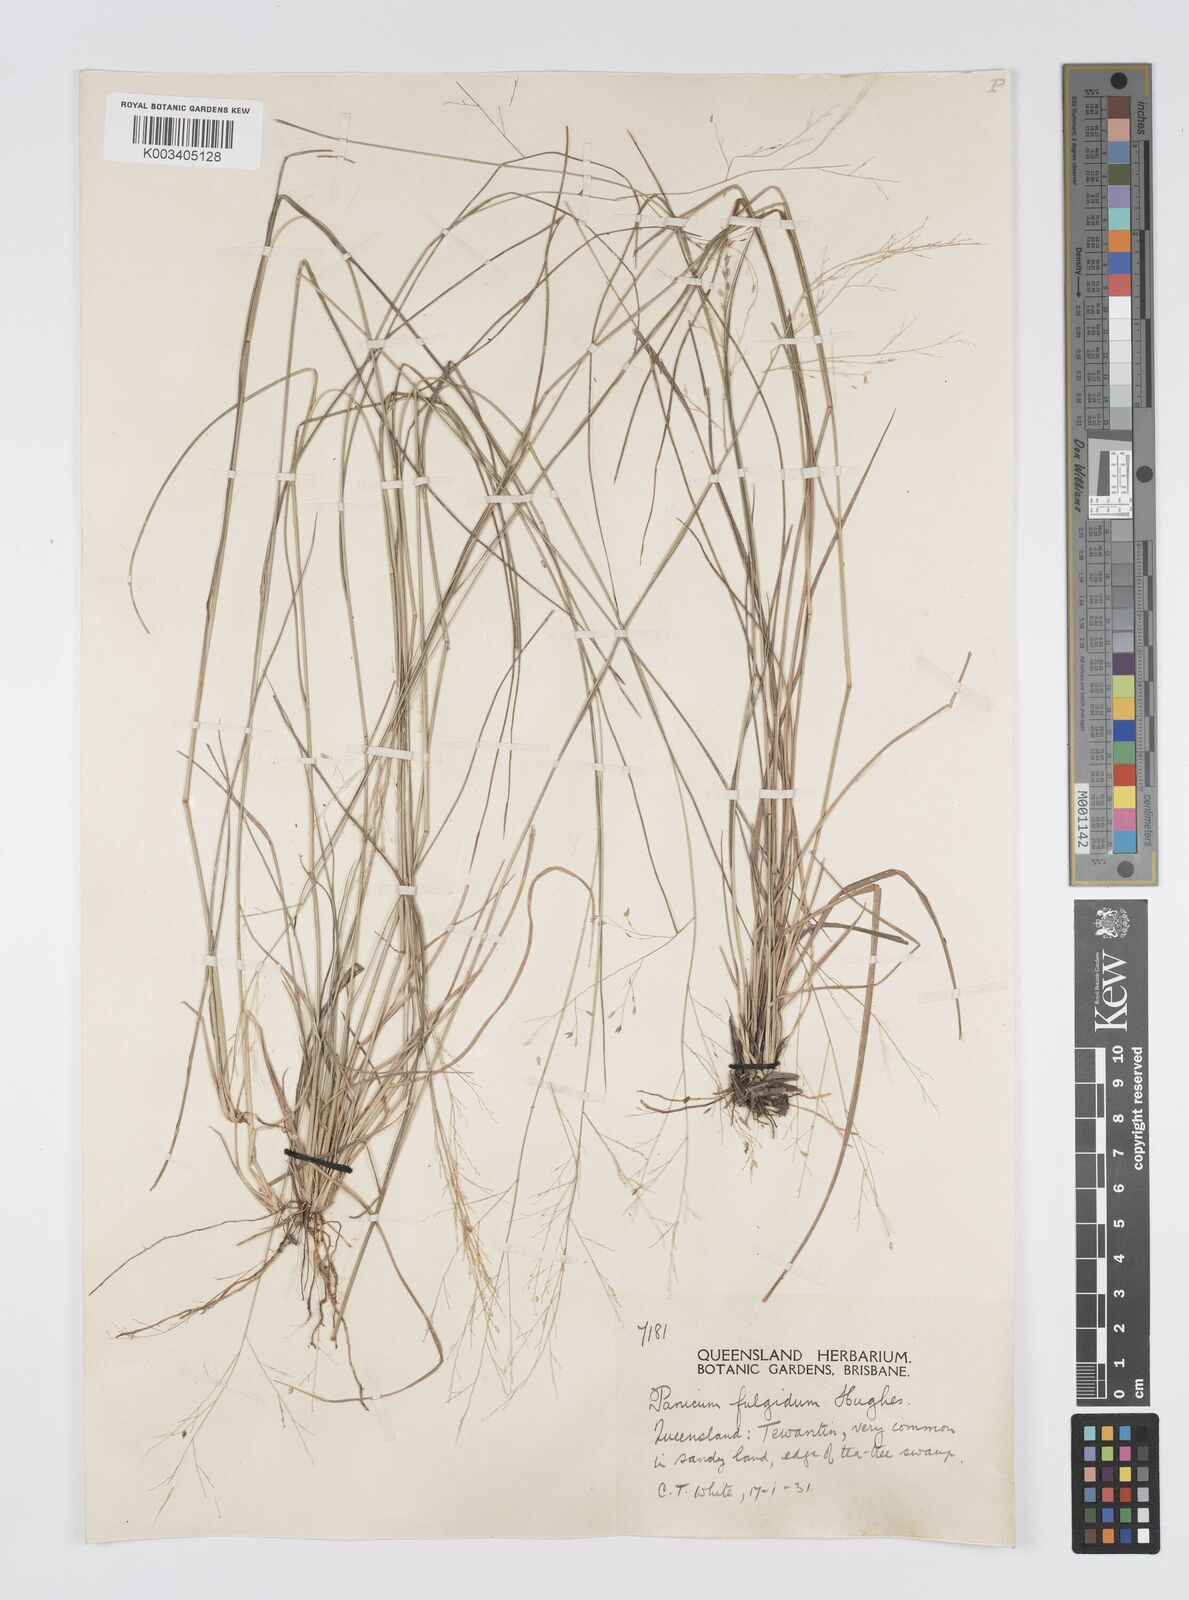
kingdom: Plantae
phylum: Tracheophyta
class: Liliopsida
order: Poales
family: Poaceae
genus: Panicum
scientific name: Panicum simile
